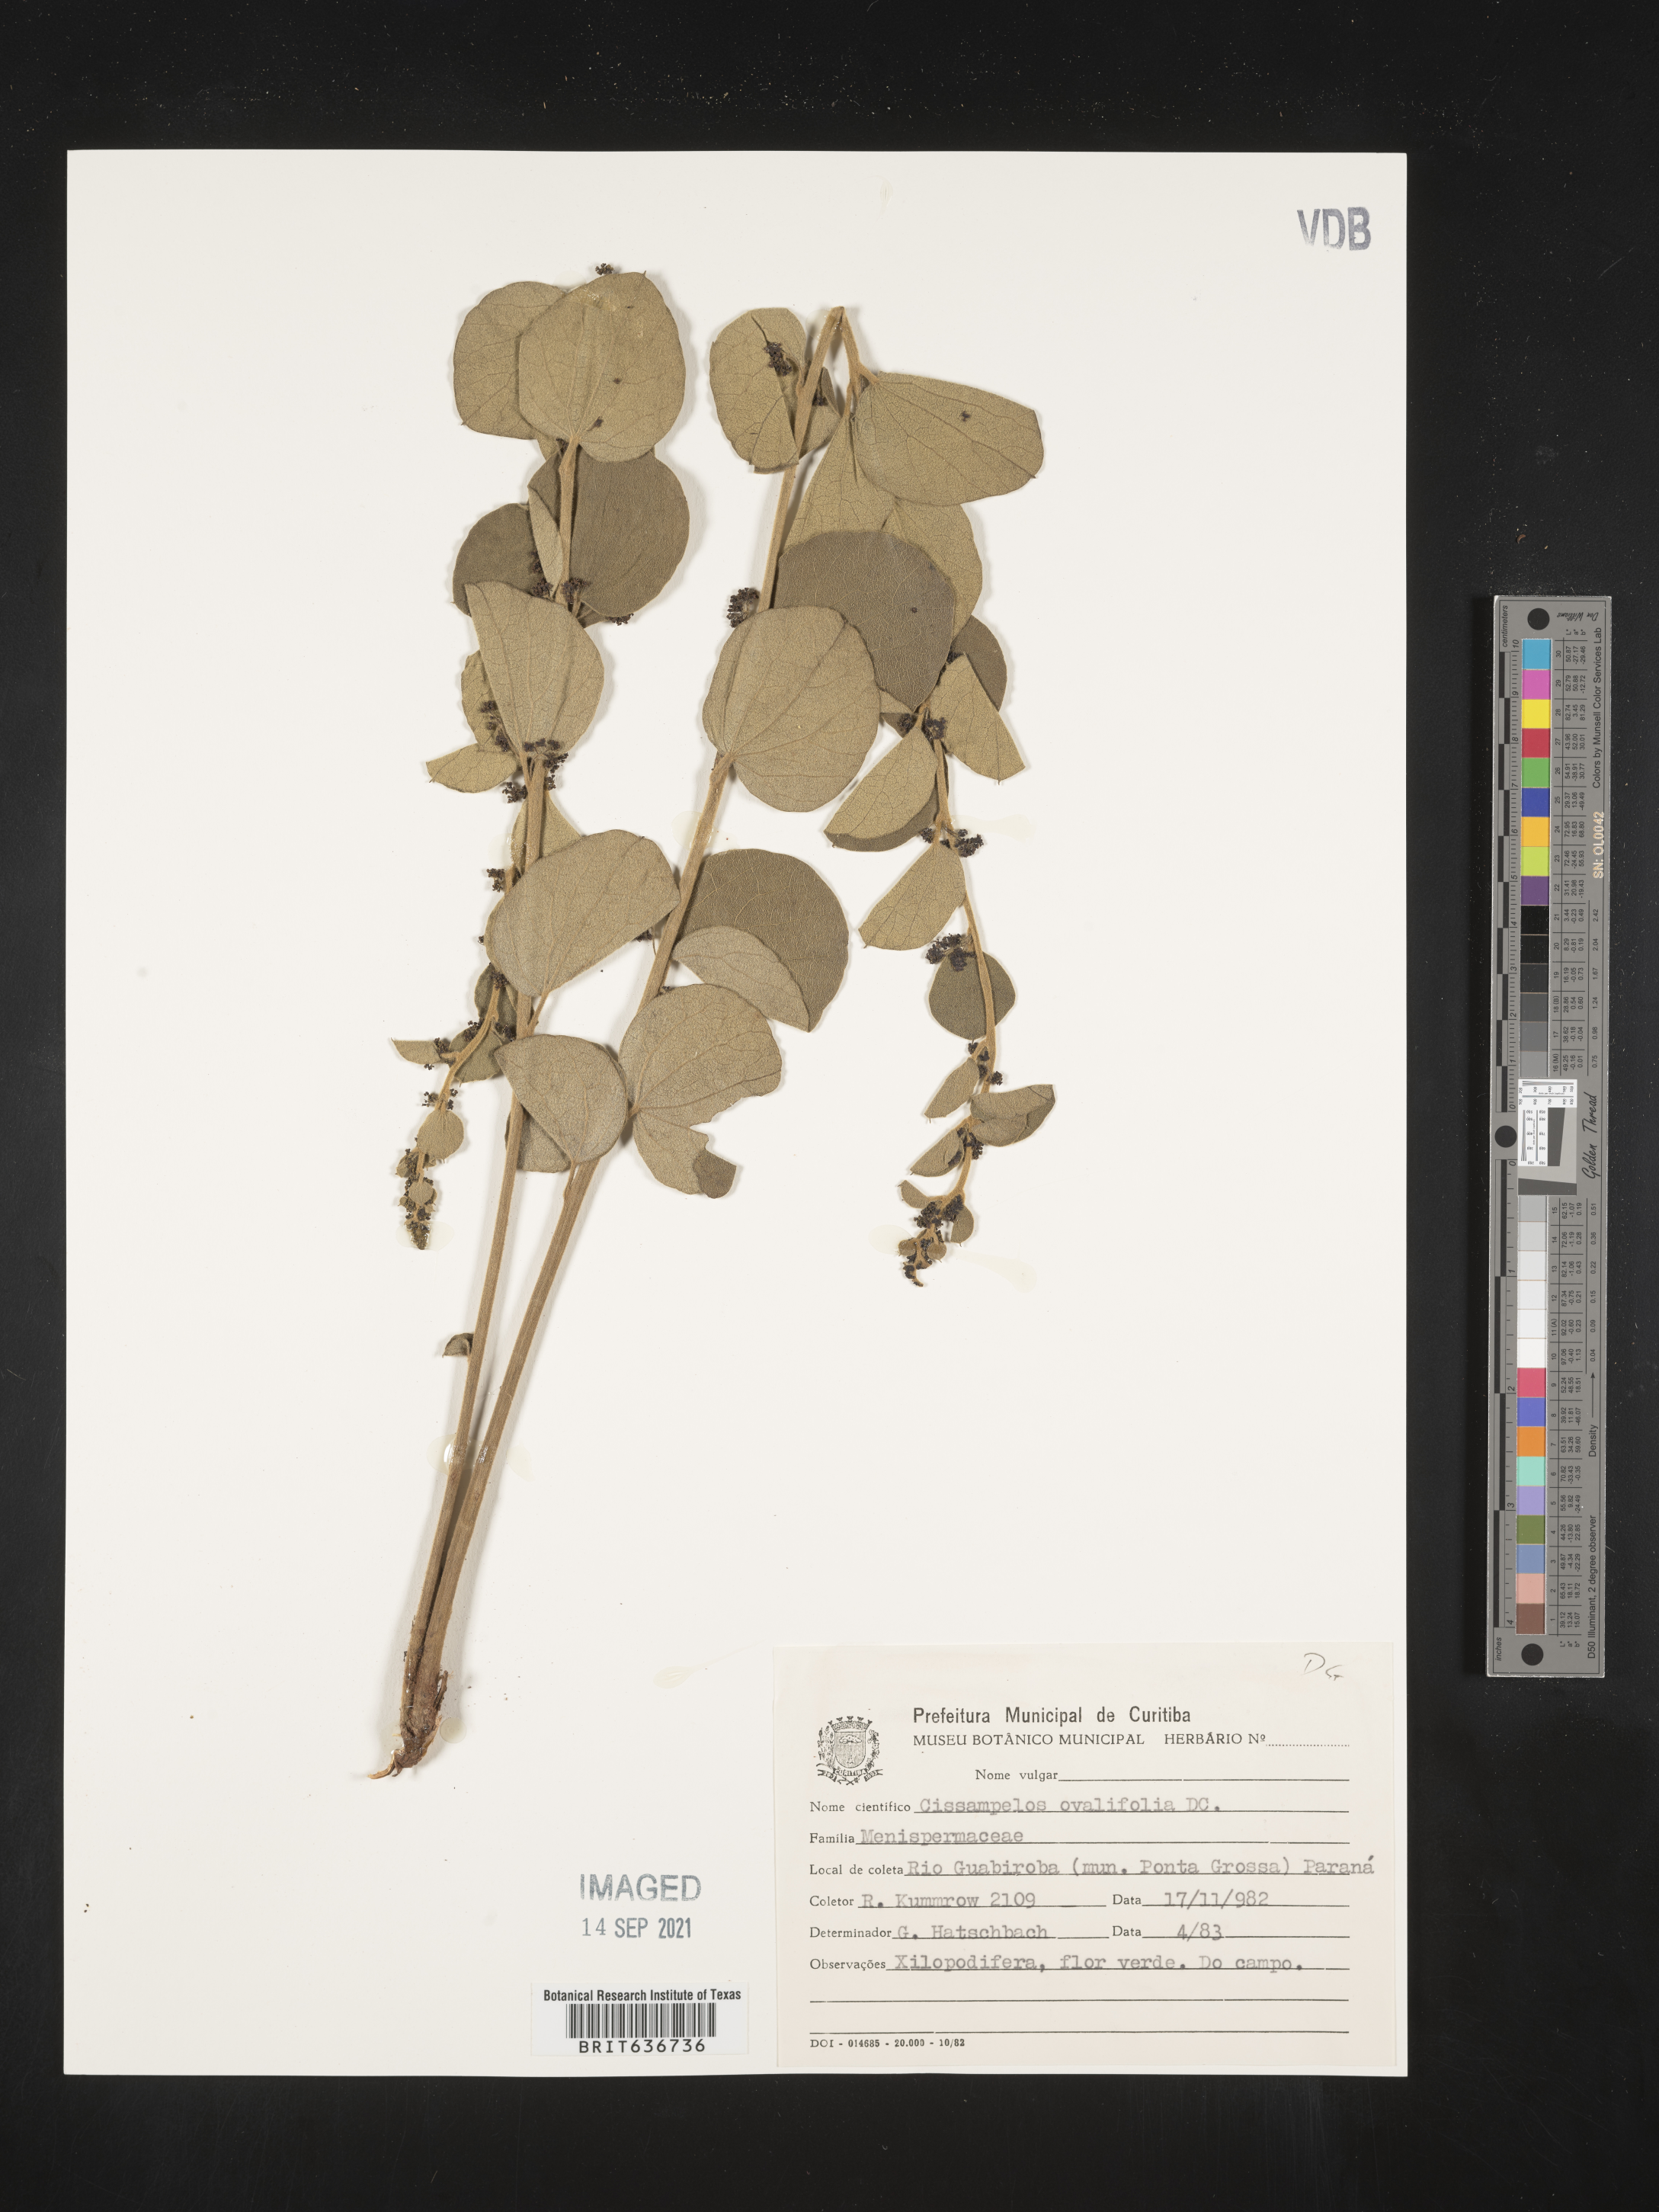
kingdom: Plantae
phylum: Tracheophyta
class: Magnoliopsida
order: Ranunculales
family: Menispermaceae
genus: Cissampelos
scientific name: Cissampelos
